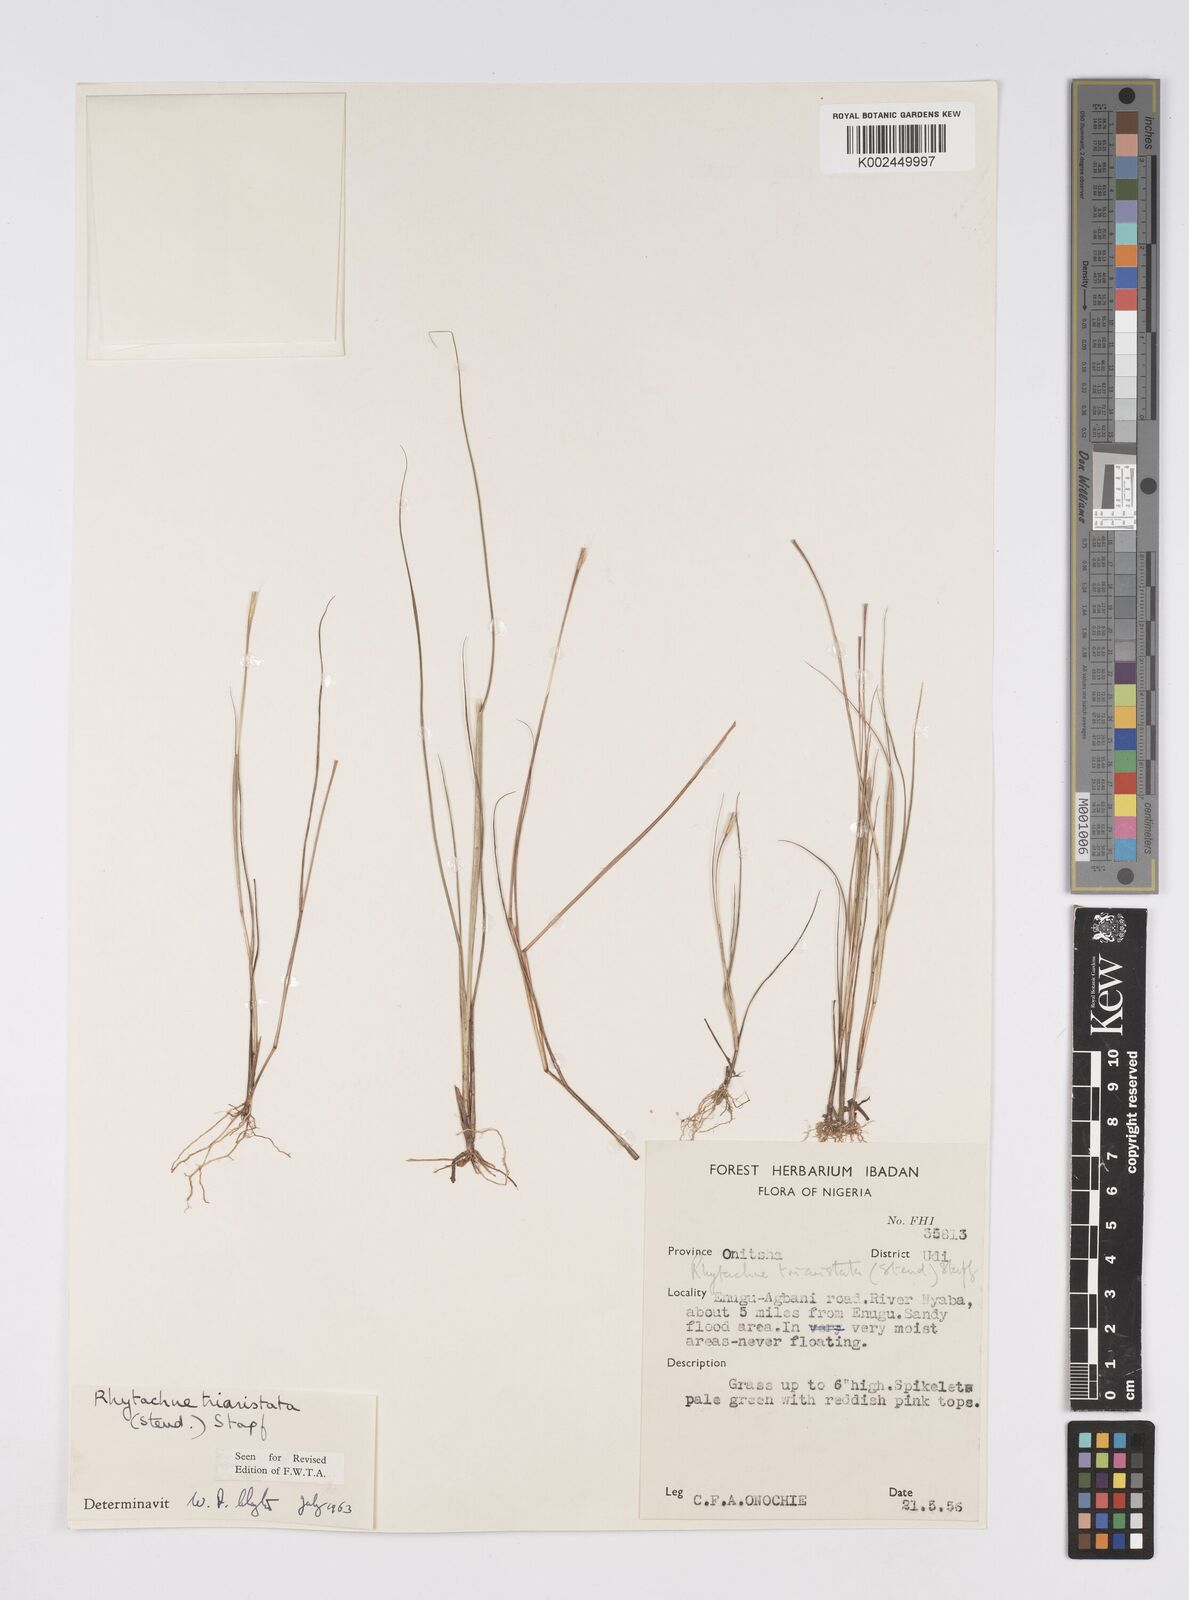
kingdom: Plantae
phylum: Tracheophyta
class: Liliopsida
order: Poales
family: Poaceae
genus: Rhytachne
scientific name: Rhytachne triaristata
